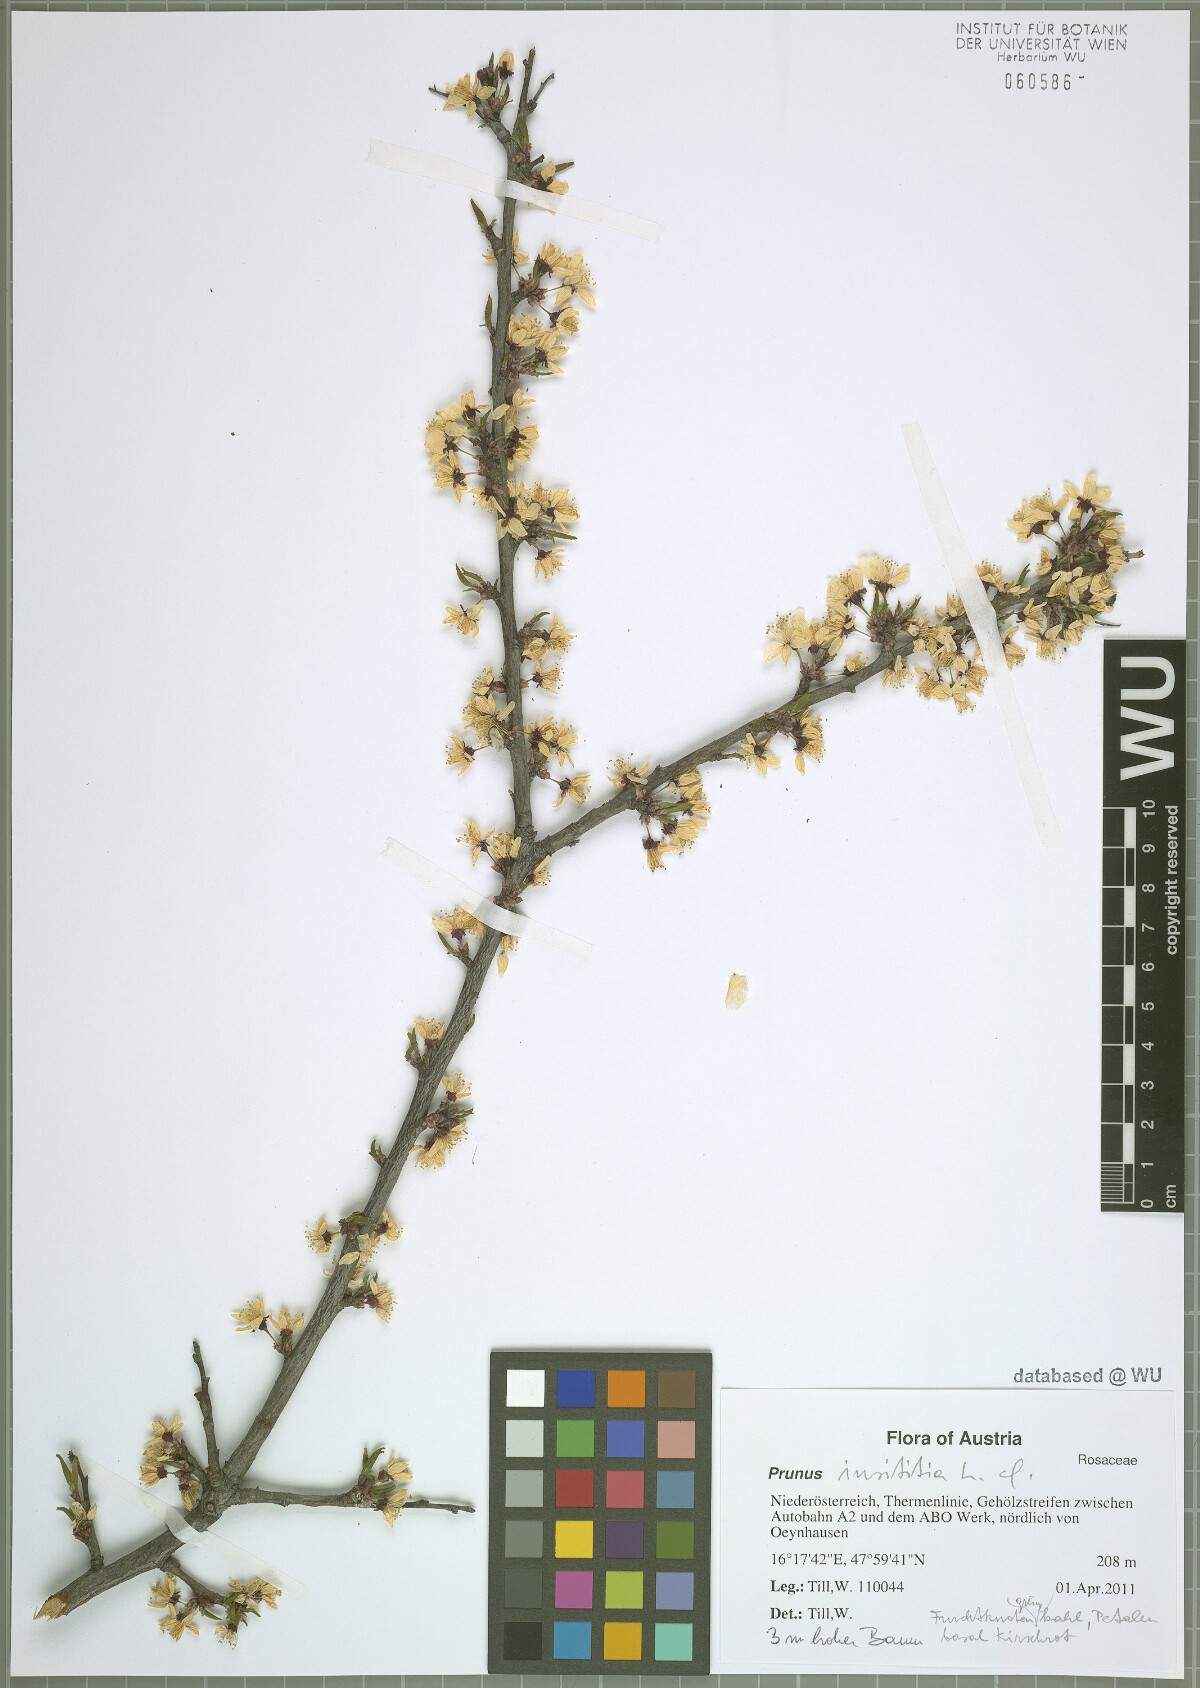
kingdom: Plantae
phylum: Tracheophyta
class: Magnoliopsida
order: Rosales
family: Rosaceae
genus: Prunus
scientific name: Prunus domestica
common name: Wild plum
